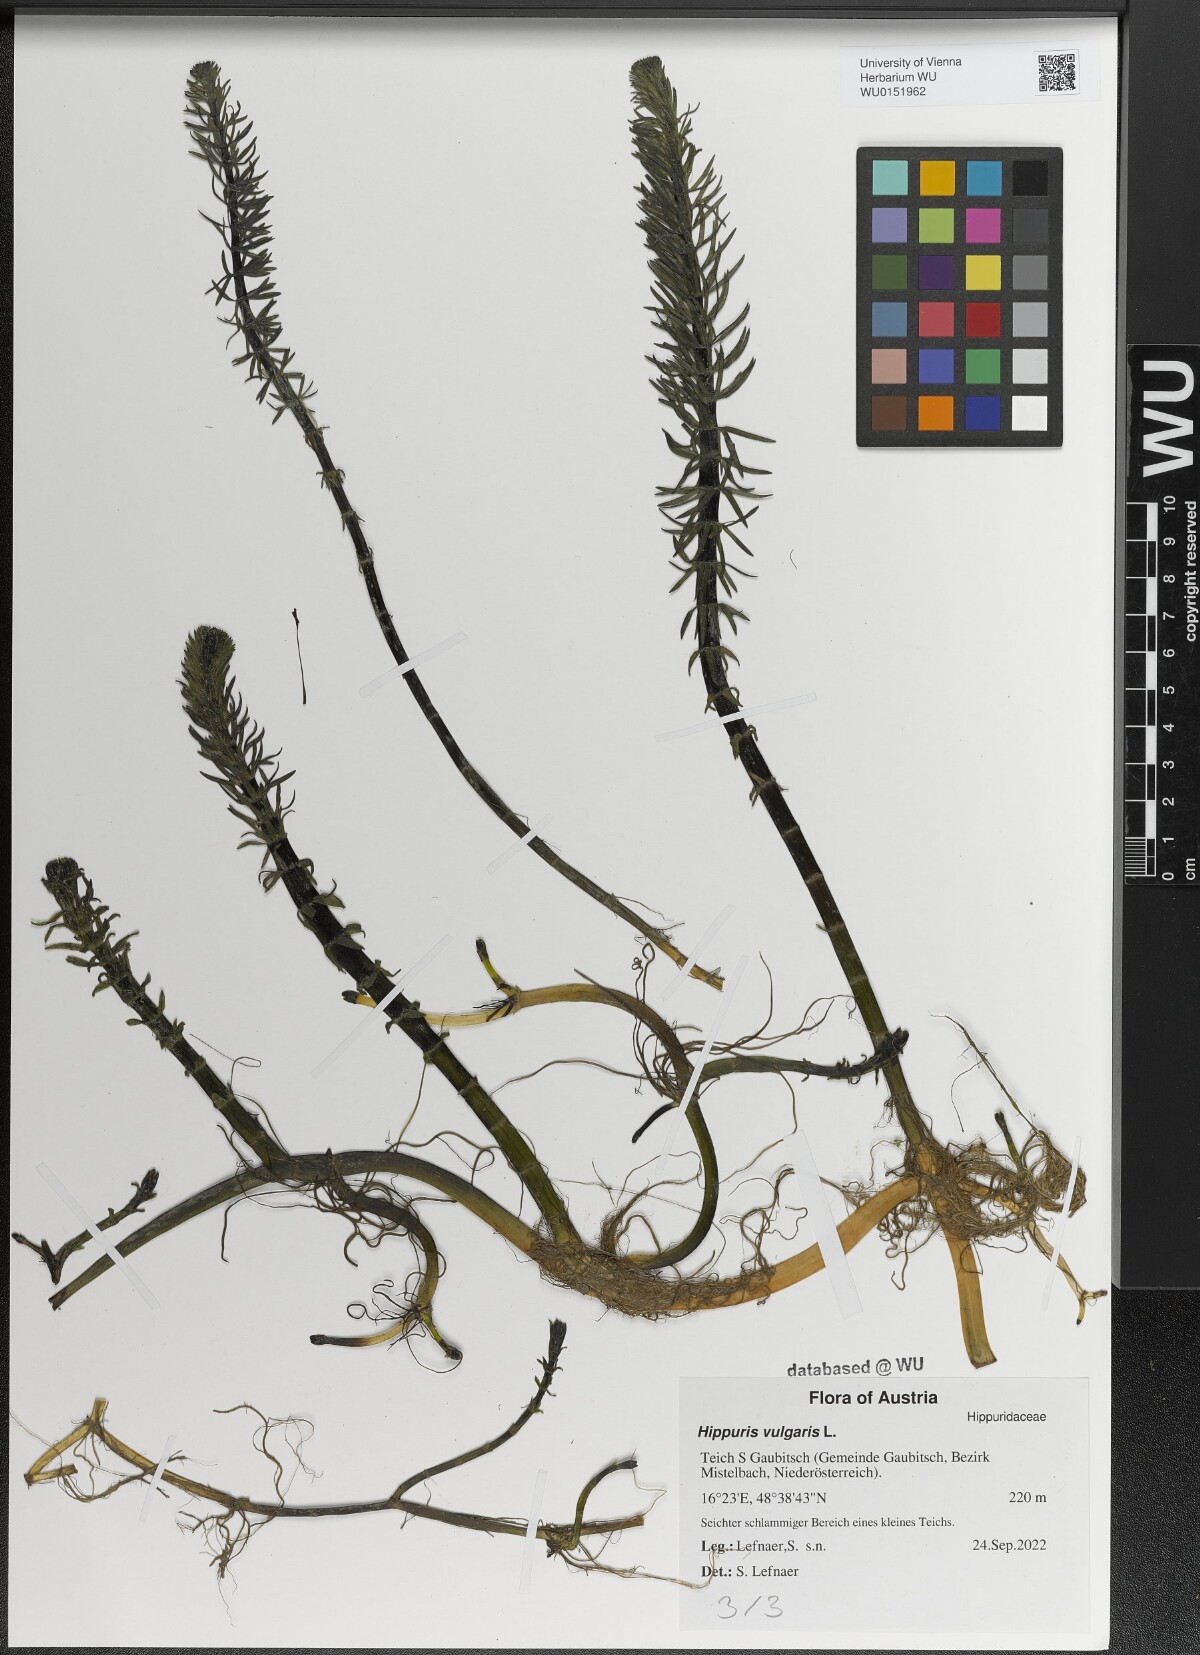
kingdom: Plantae
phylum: Tracheophyta
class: Magnoliopsida
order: Lamiales
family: Plantaginaceae
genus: Hippuris
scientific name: Hippuris vulgaris
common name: Mare's-tail
